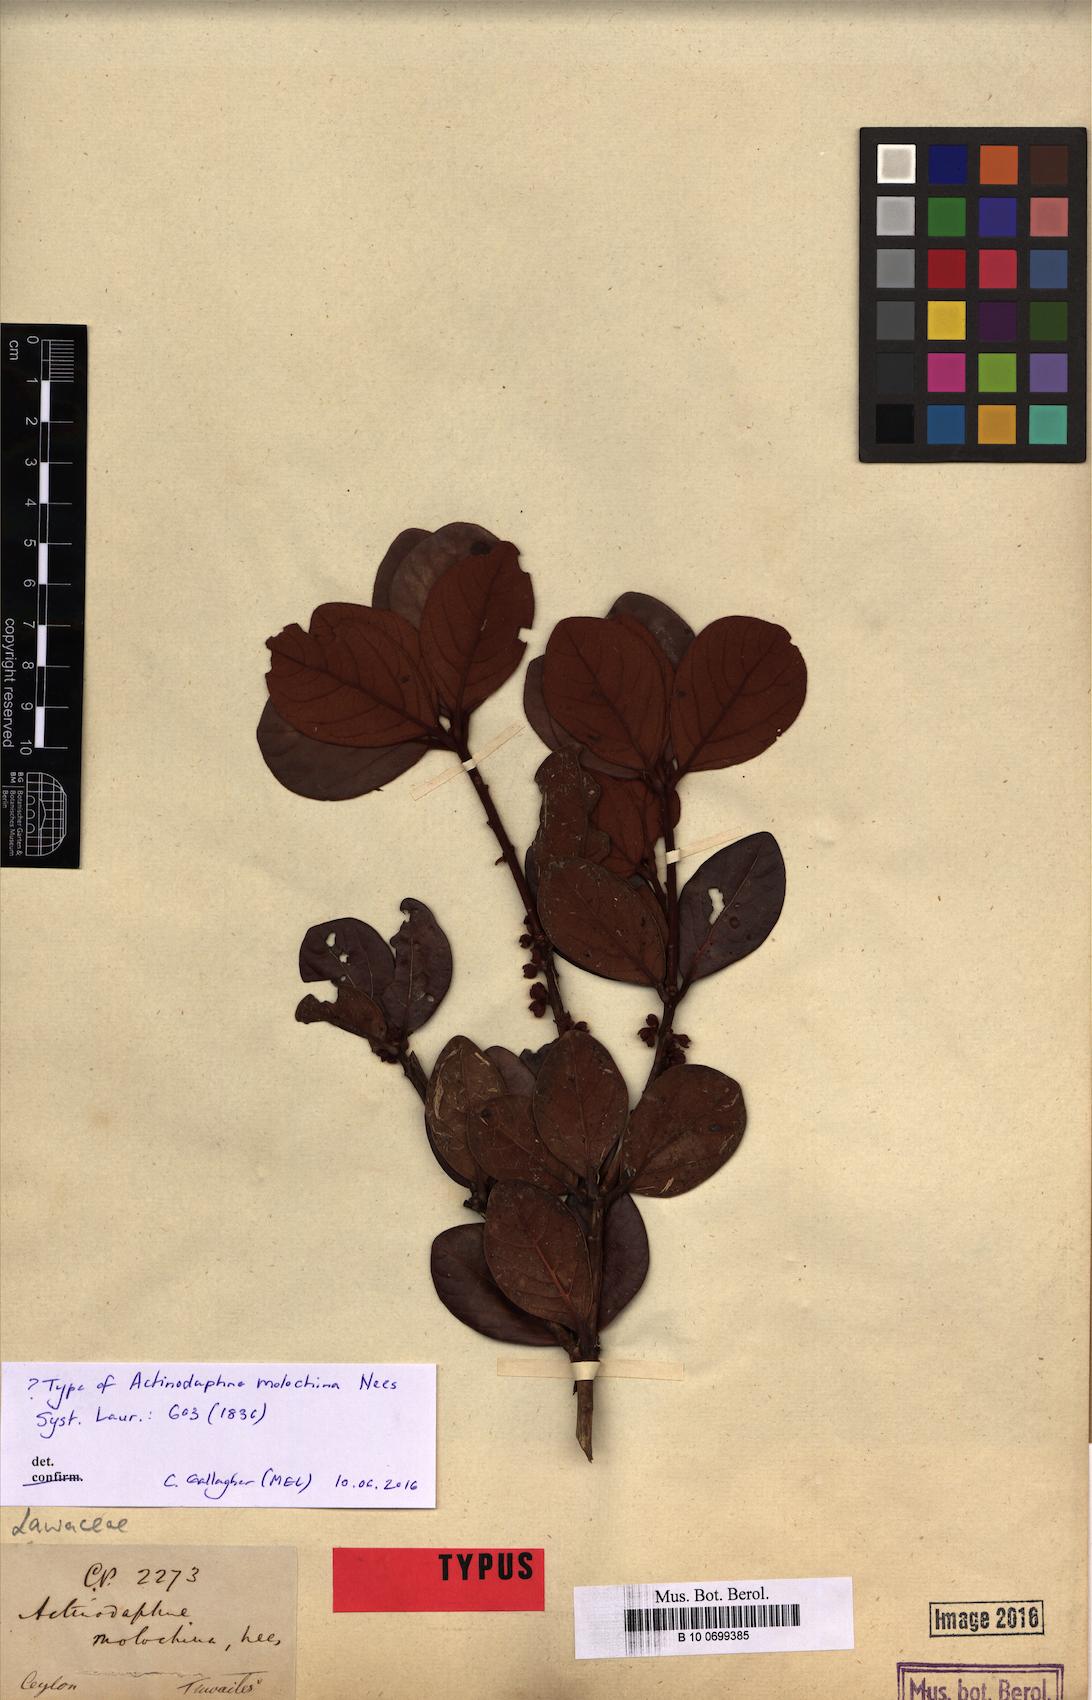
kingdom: Plantae
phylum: Tracheophyta
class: Magnoliopsida
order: Laurales
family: Lauraceae
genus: Actinodaphne
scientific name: Actinodaphne molochina
